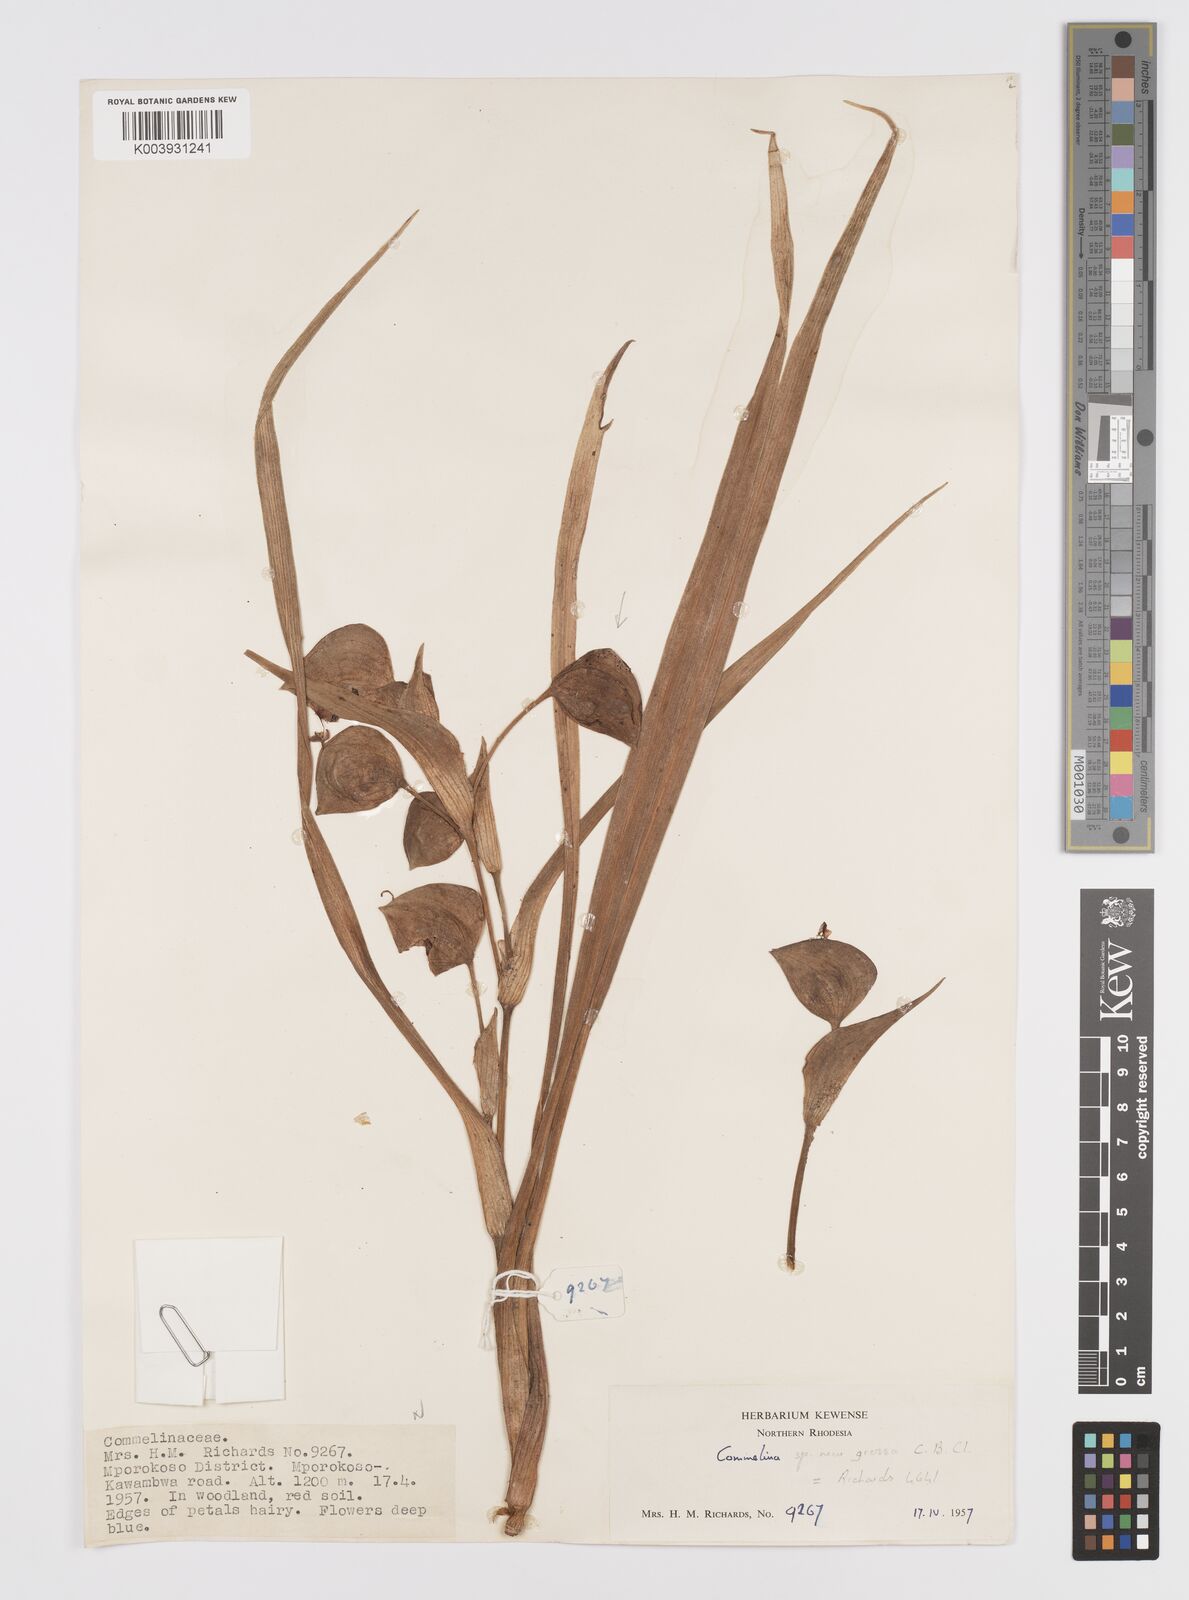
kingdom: Plantae
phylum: Tracheophyta
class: Liliopsida
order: Commelinales
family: Commelinaceae
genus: Commelina
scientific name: Commelina grandis
